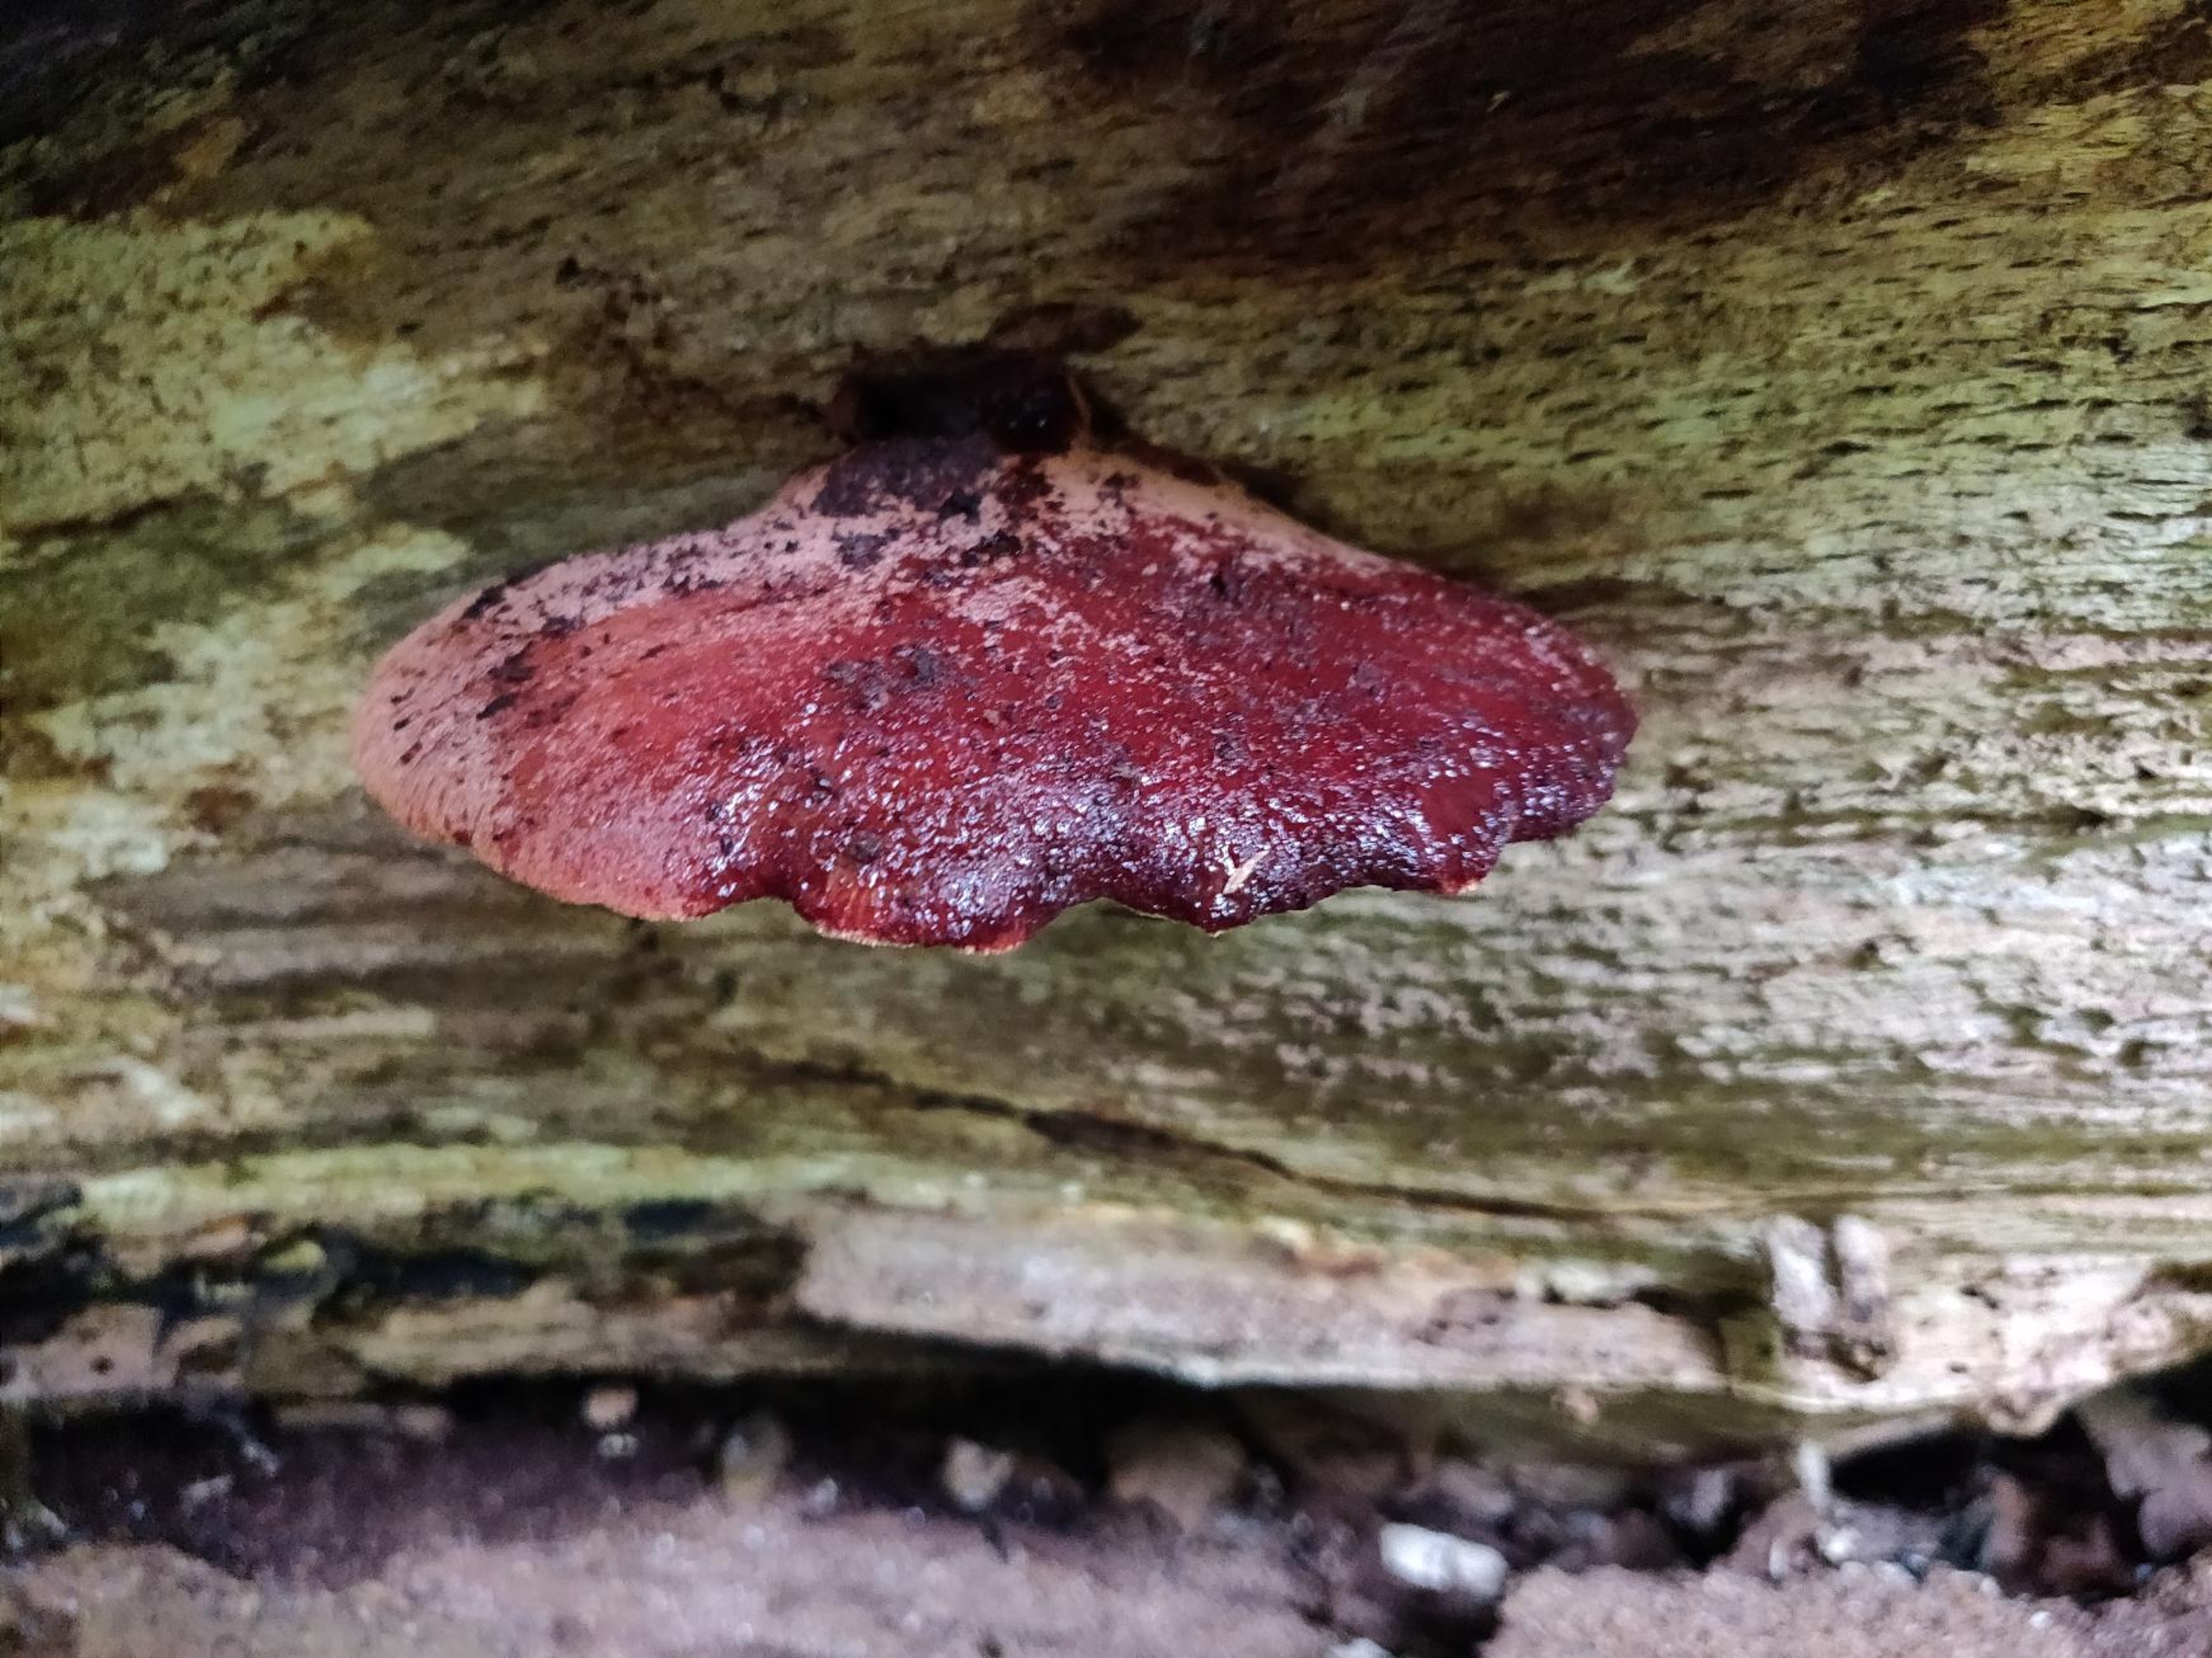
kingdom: Fungi
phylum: Basidiomycota
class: Agaricomycetes
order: Agaricales
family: Fistulinaceae
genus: Fistulina
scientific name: Fistulina hepatica
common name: Oksetunge
